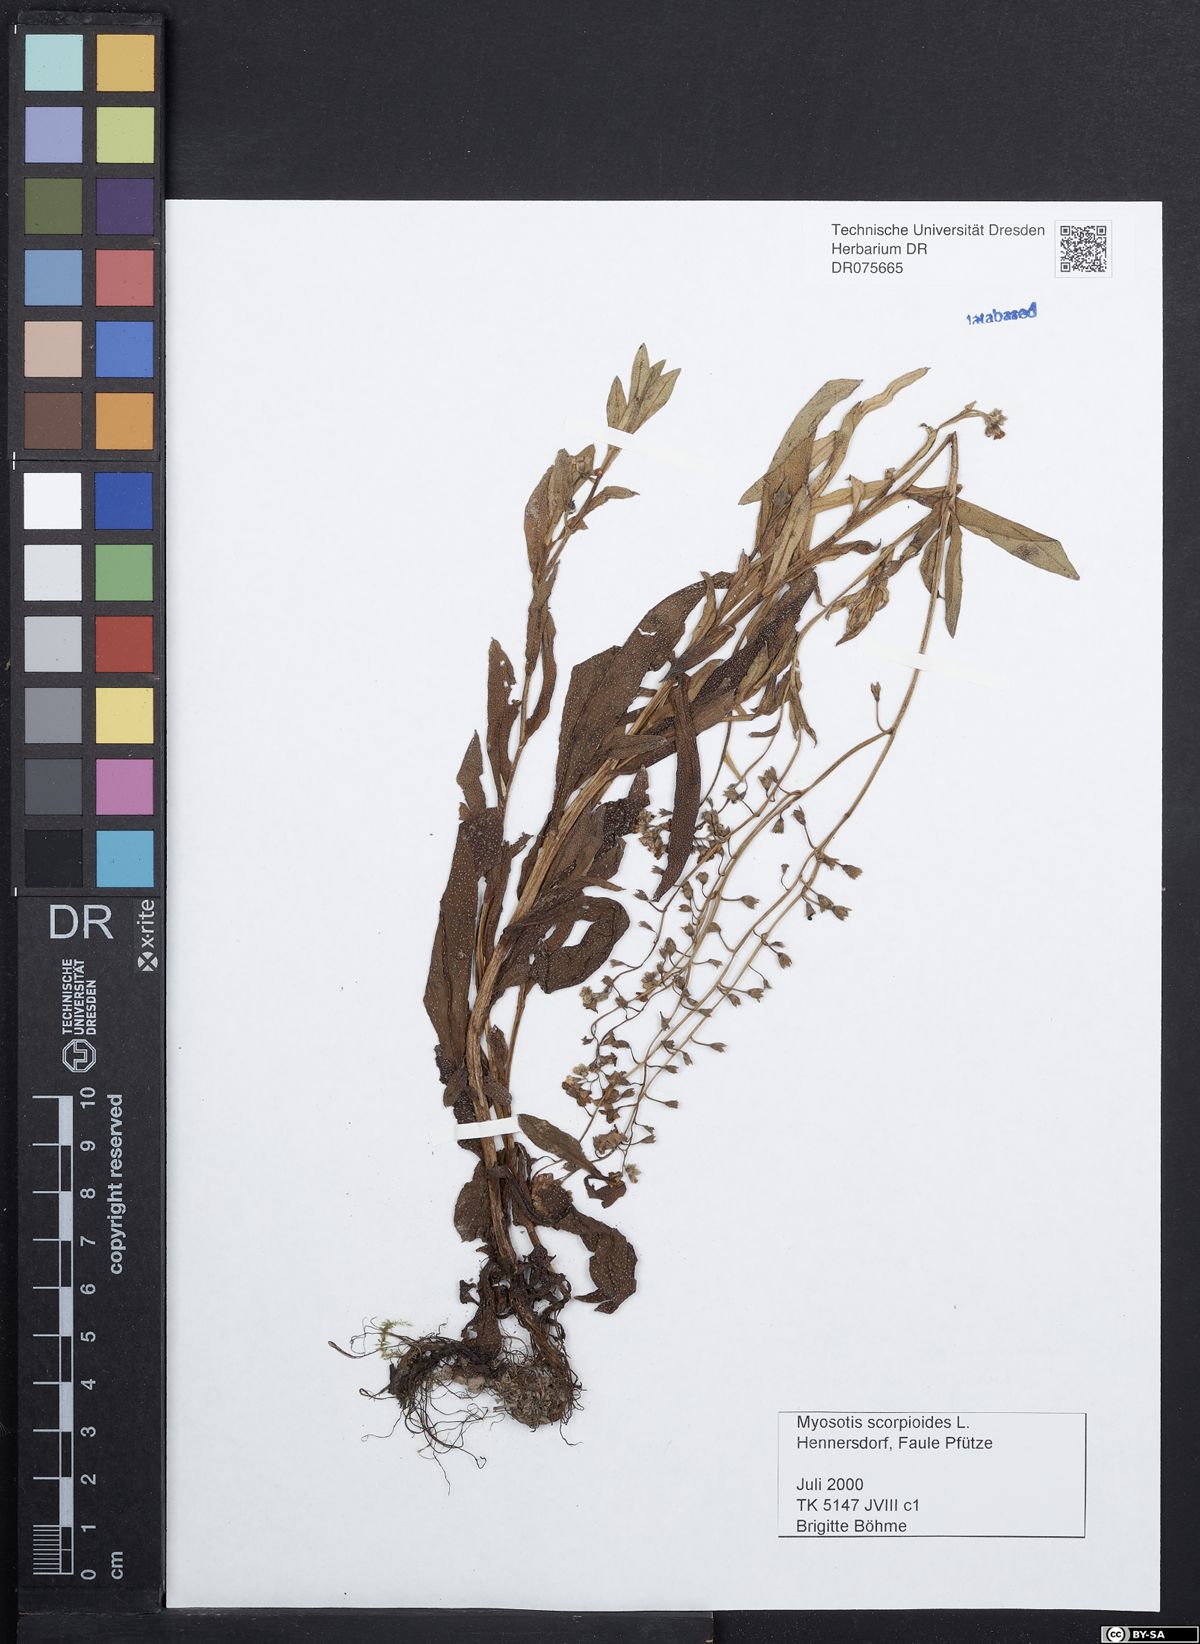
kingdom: Plantae
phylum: Tracheophyta
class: Magnoliopsida
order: Boraginales
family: Boraginaceae
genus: Myosotis
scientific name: Myosotis scorpioides
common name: Water forget-me-not
